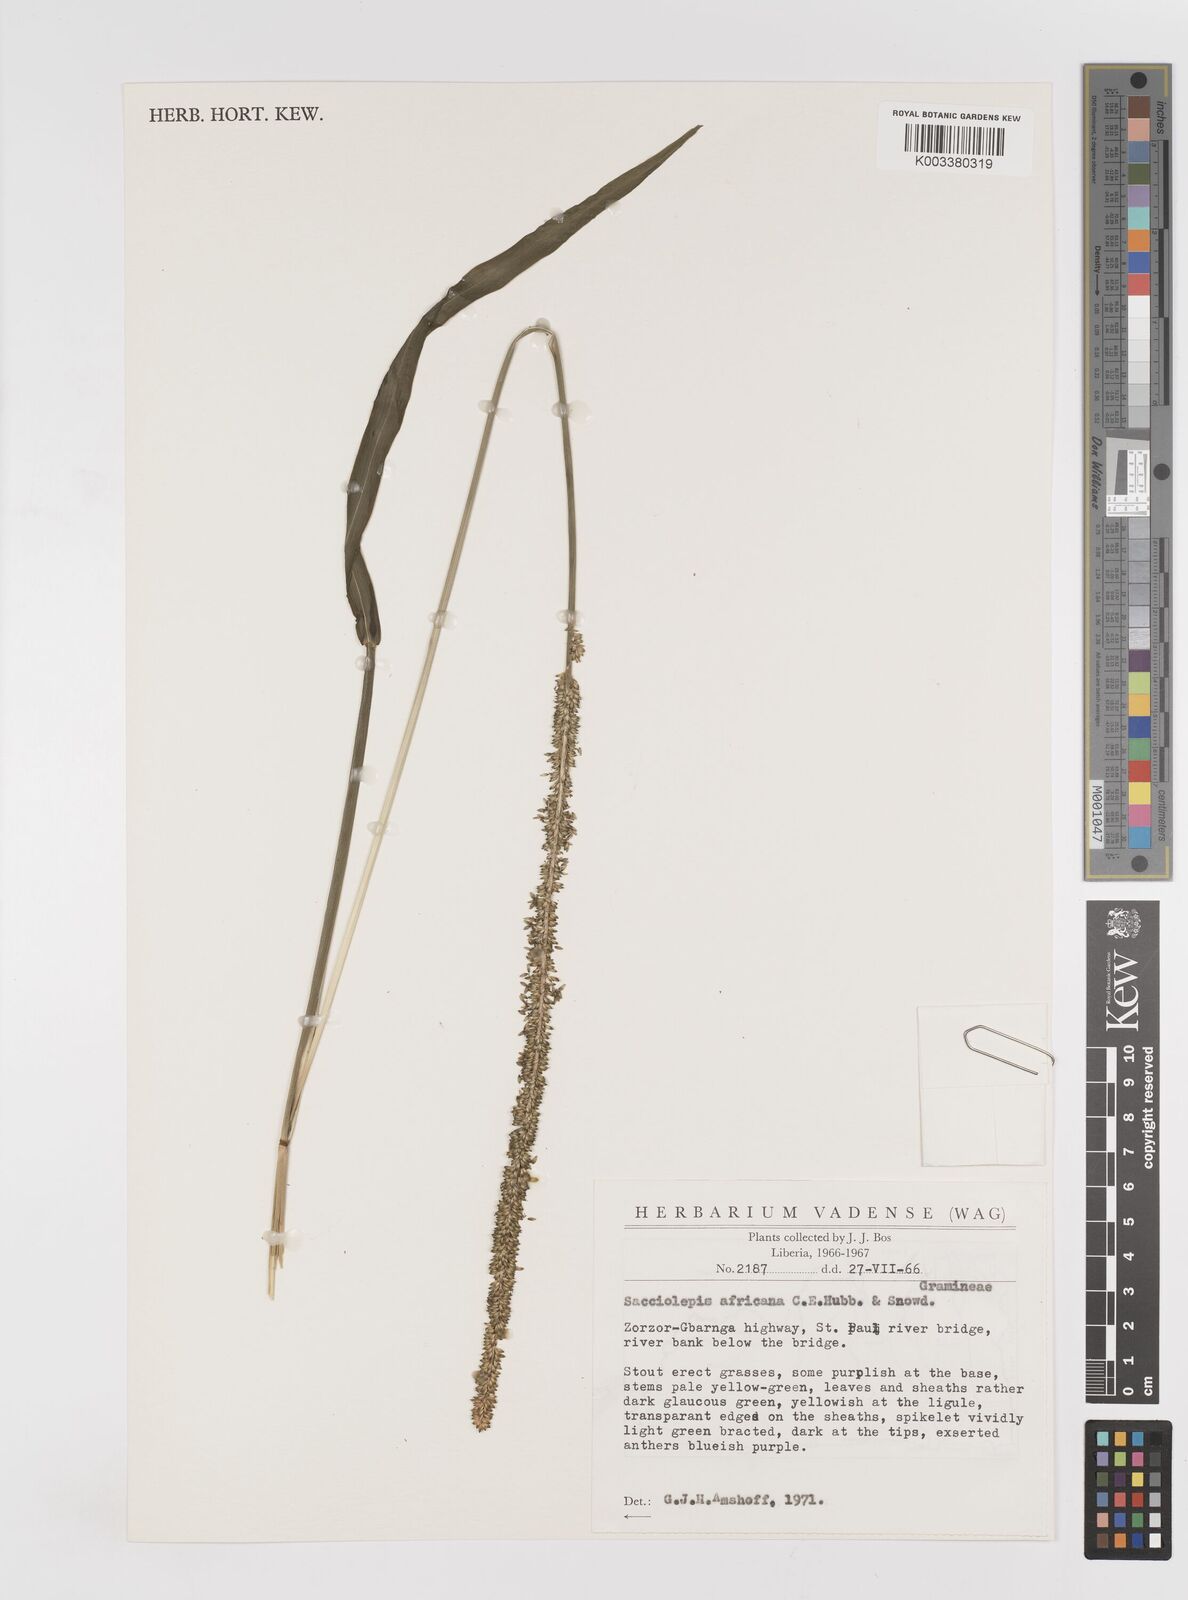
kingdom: Plantae
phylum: Tracheophyta
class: Liliopsida
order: Poales
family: Poaceae
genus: Sacciolepis
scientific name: Sacciolepis africana
